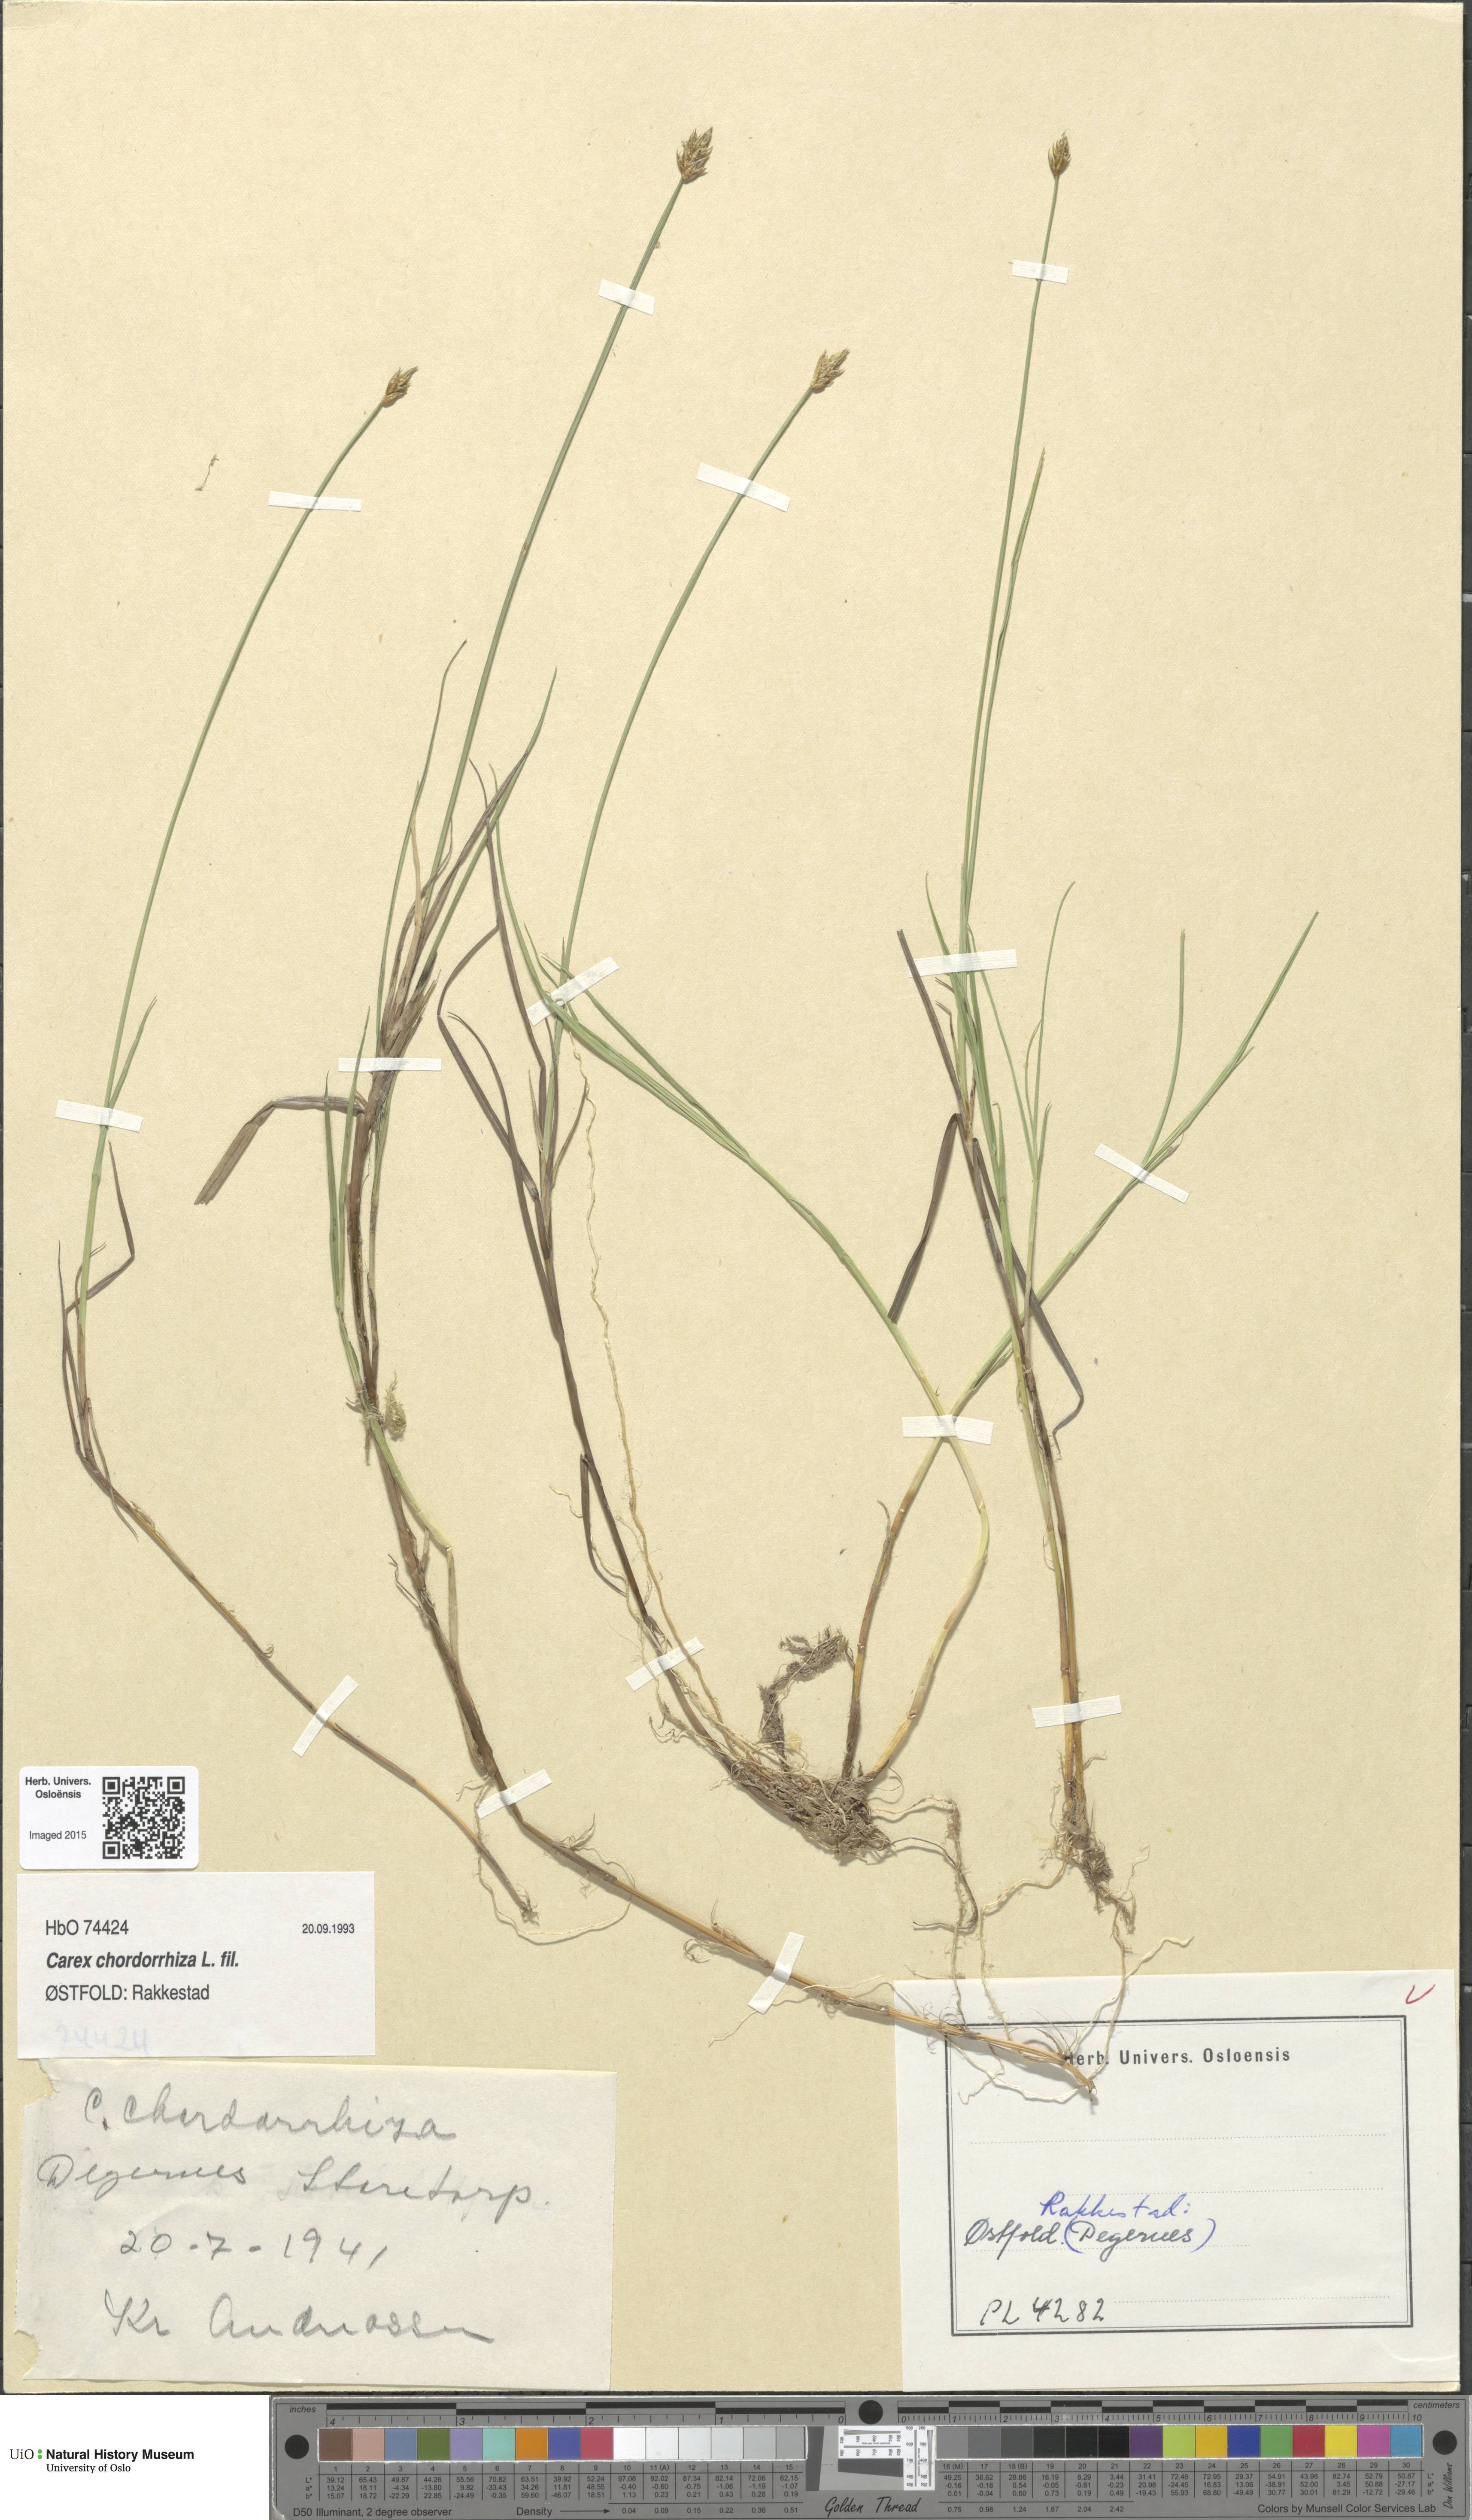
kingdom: Plantae
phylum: Tracheophyta
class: Liliopsida
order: Poales
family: Cyperaceae
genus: Carex
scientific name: Carex chordorrhiza
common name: String sedge
